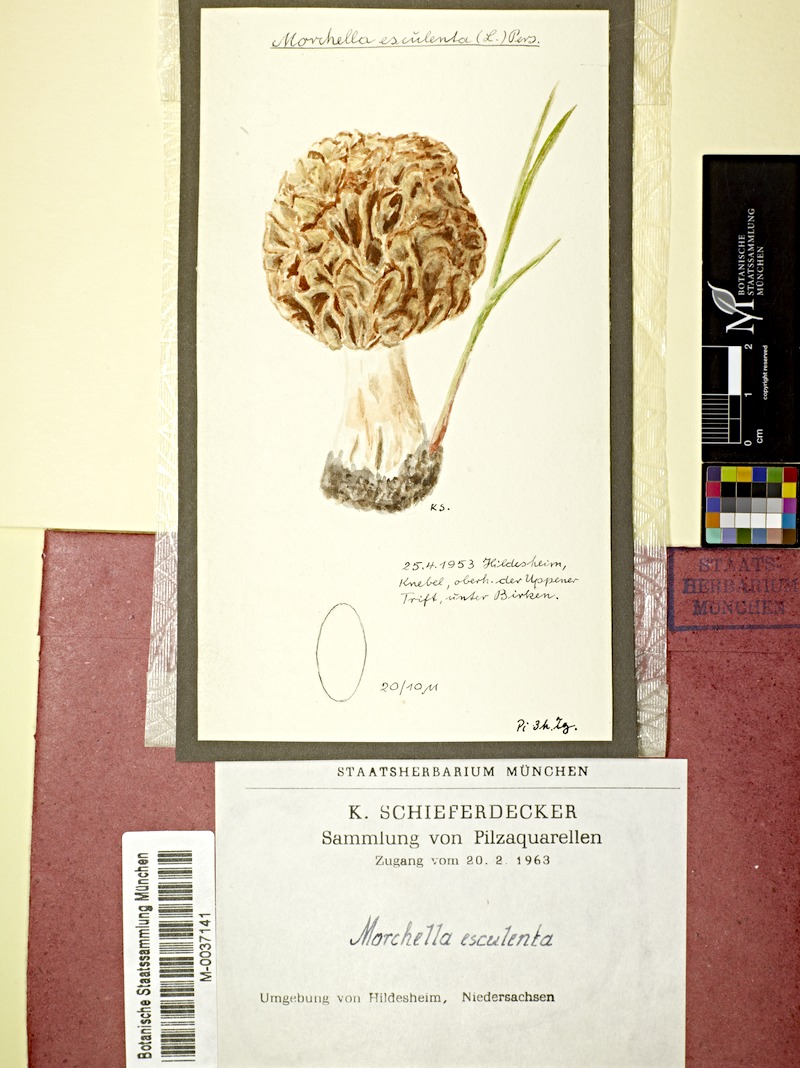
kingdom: Fungi
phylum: Ascomycota
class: Pezizomycetes
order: Pezizales
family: Morchellaceae
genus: Morchella
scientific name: Morchella esculenta
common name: Morel
